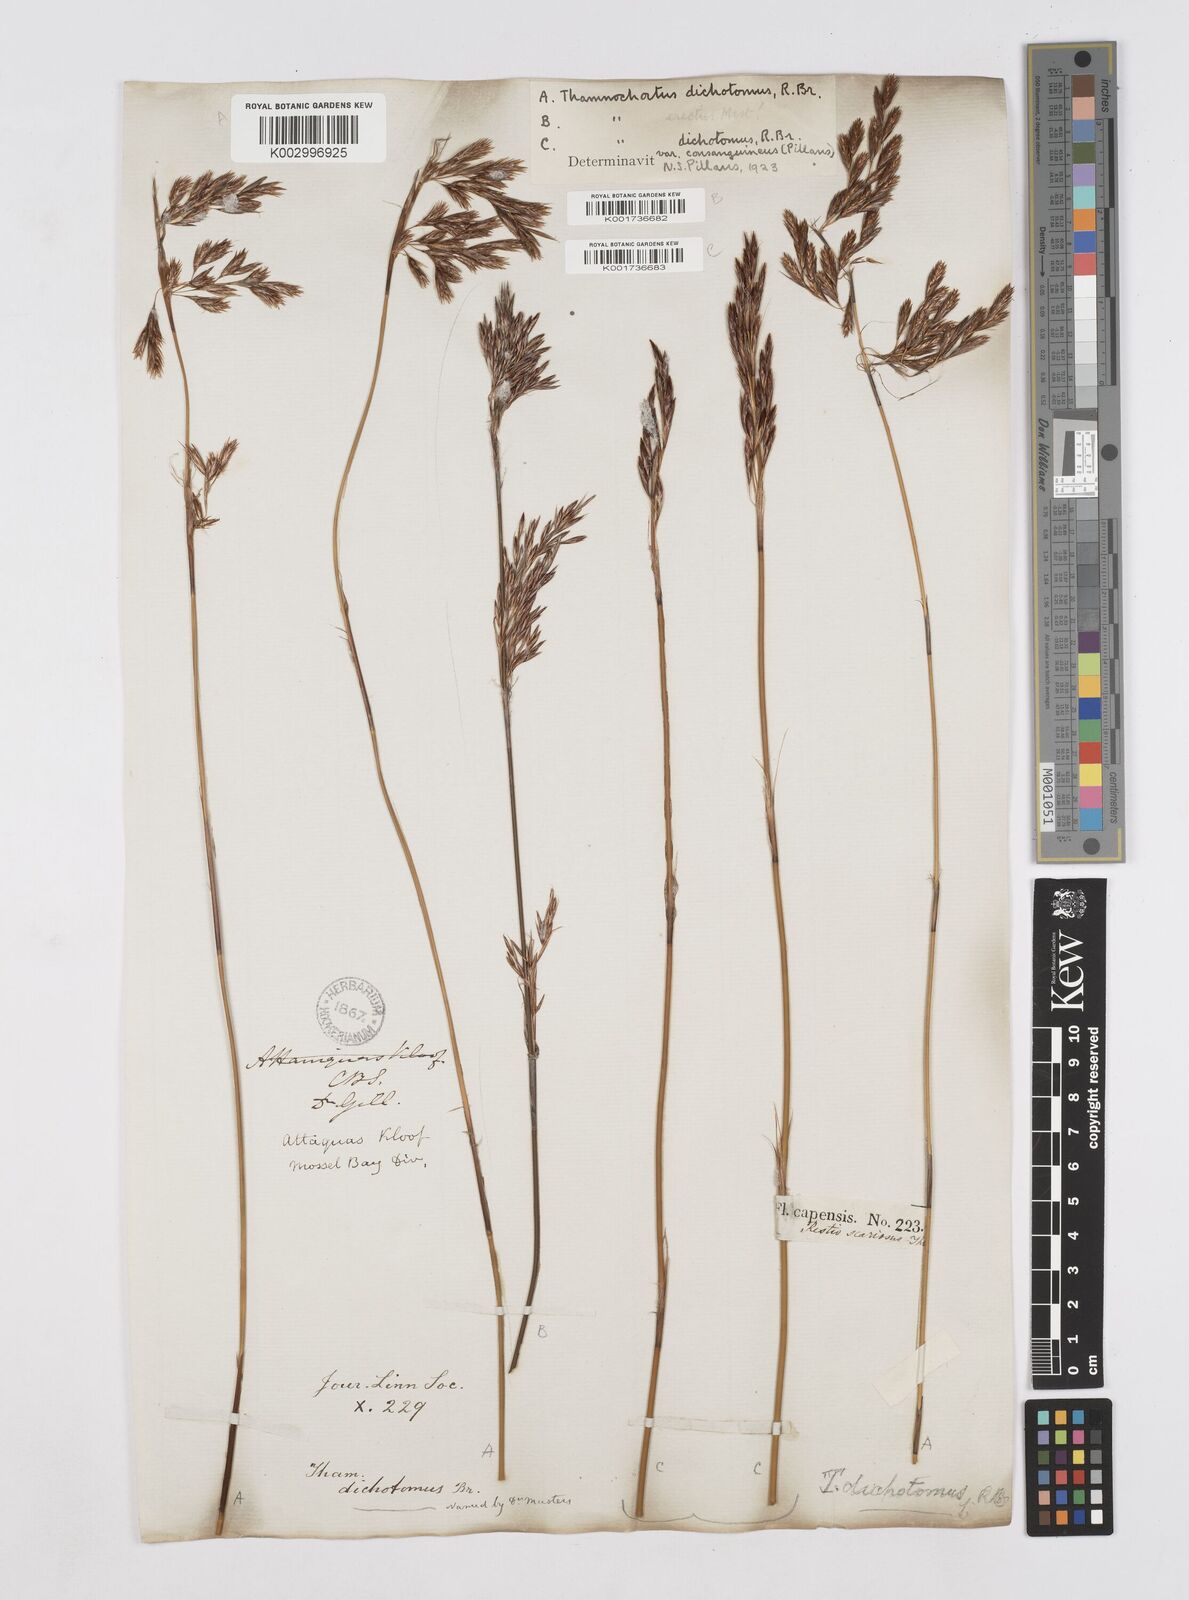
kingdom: Plantae
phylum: Tracheophyta
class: Liliopsida
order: Poales
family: Restionaceae
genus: Thamnochortus
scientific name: Thamnochortus lucens
